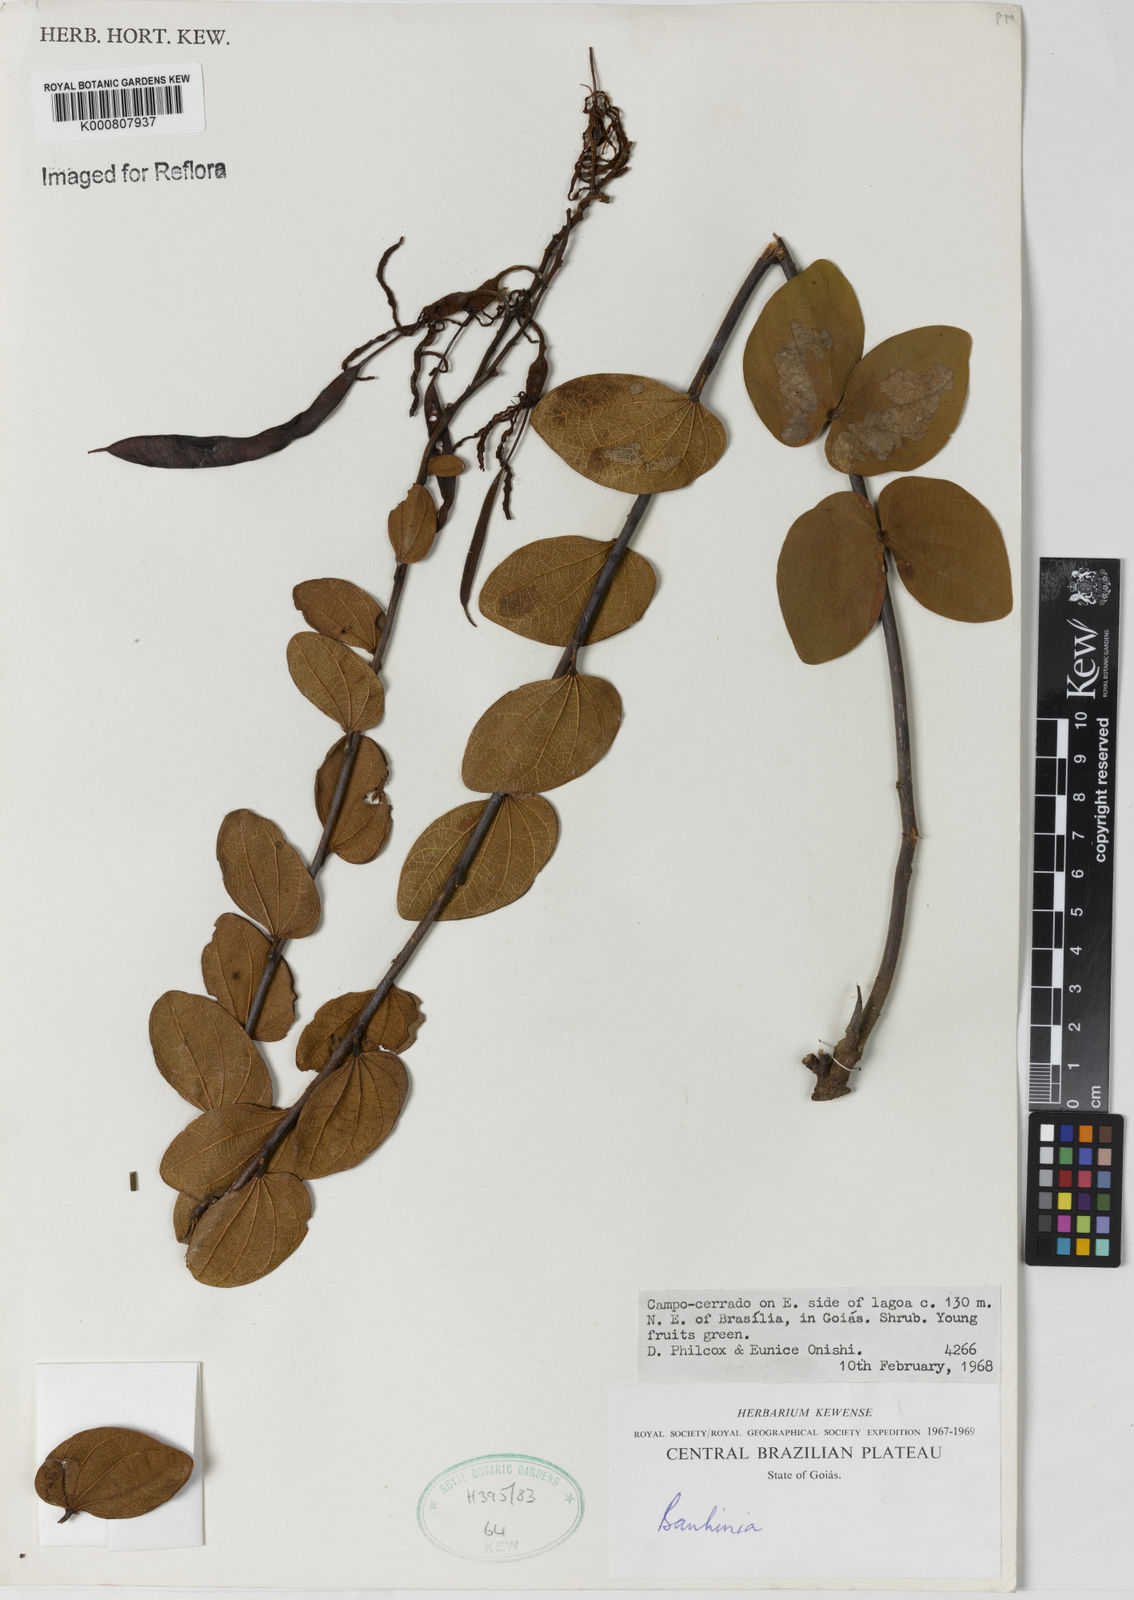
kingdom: Plantae
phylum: Tracheophyta
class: Magnoliopsida
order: Fabales
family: Fabaceae
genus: Bauhinia
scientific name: Bauhinia
